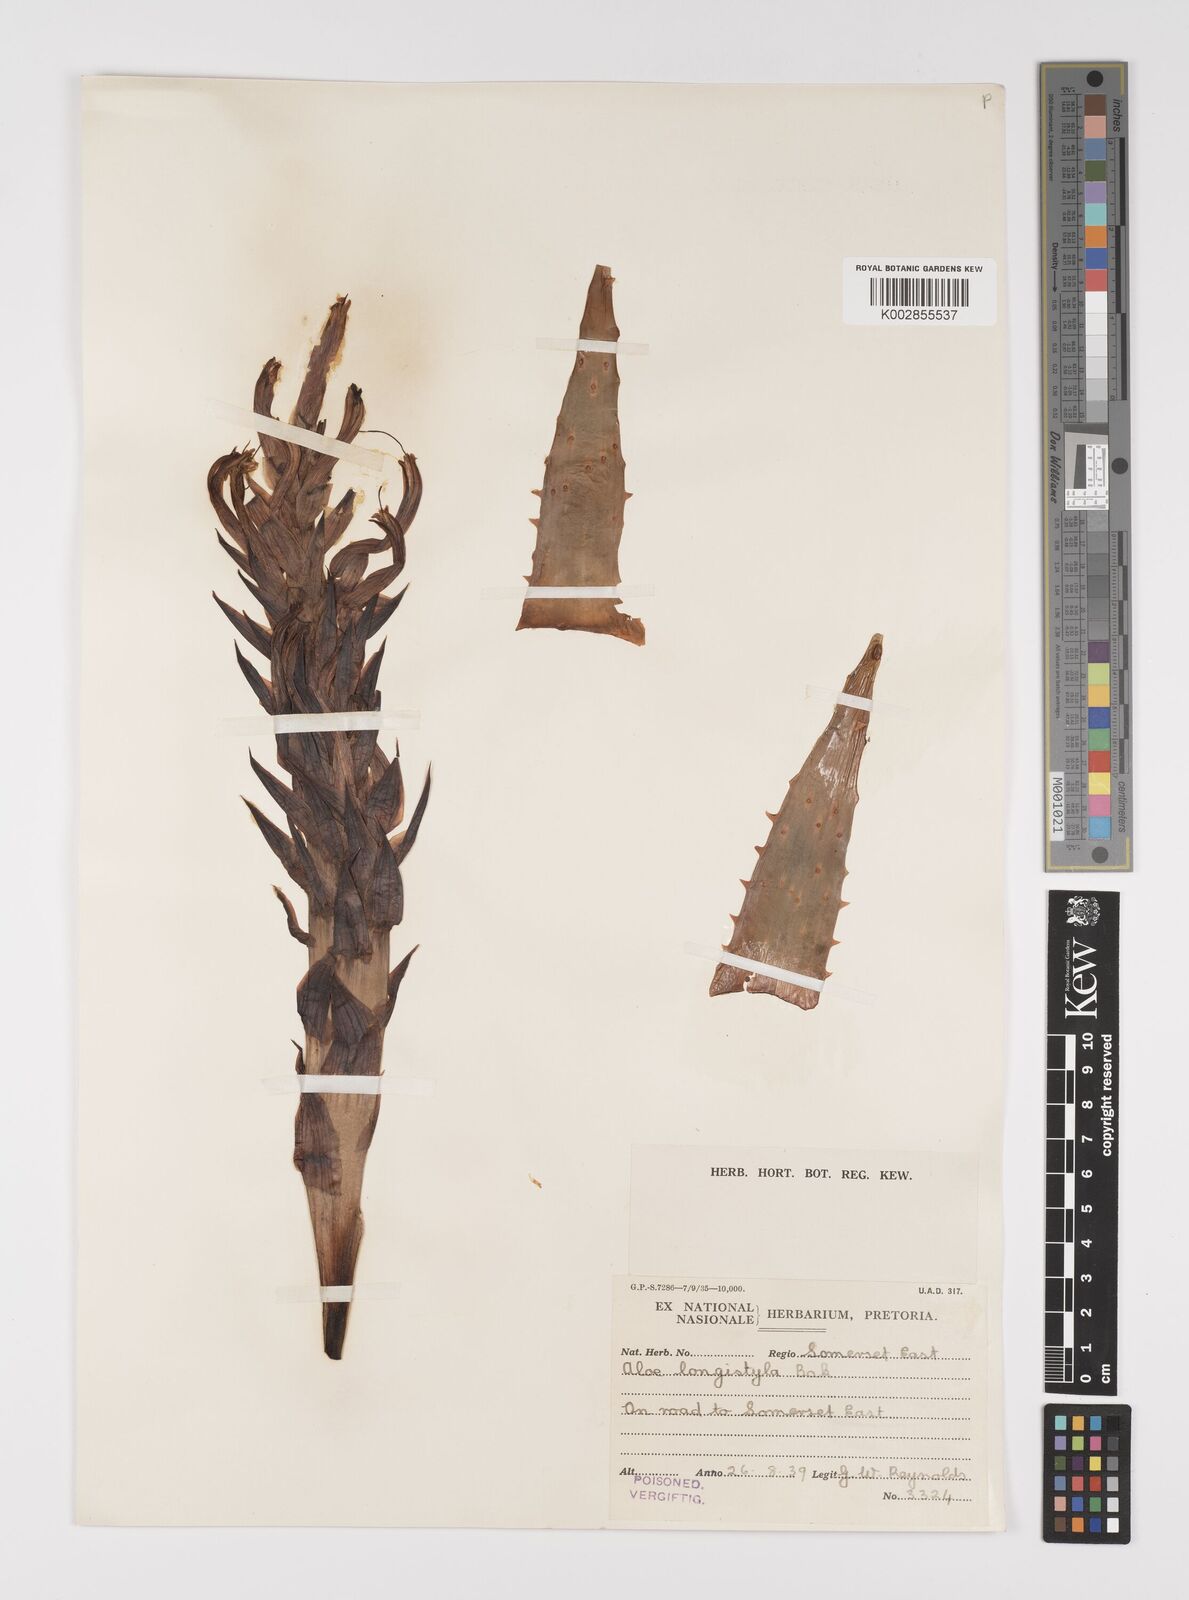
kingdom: Plantae
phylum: Tracheophyta
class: Liliopsida
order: Asparagales
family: Asphodelaceae
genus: Aloe
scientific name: Aloe longistyla
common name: Karoo aloe
